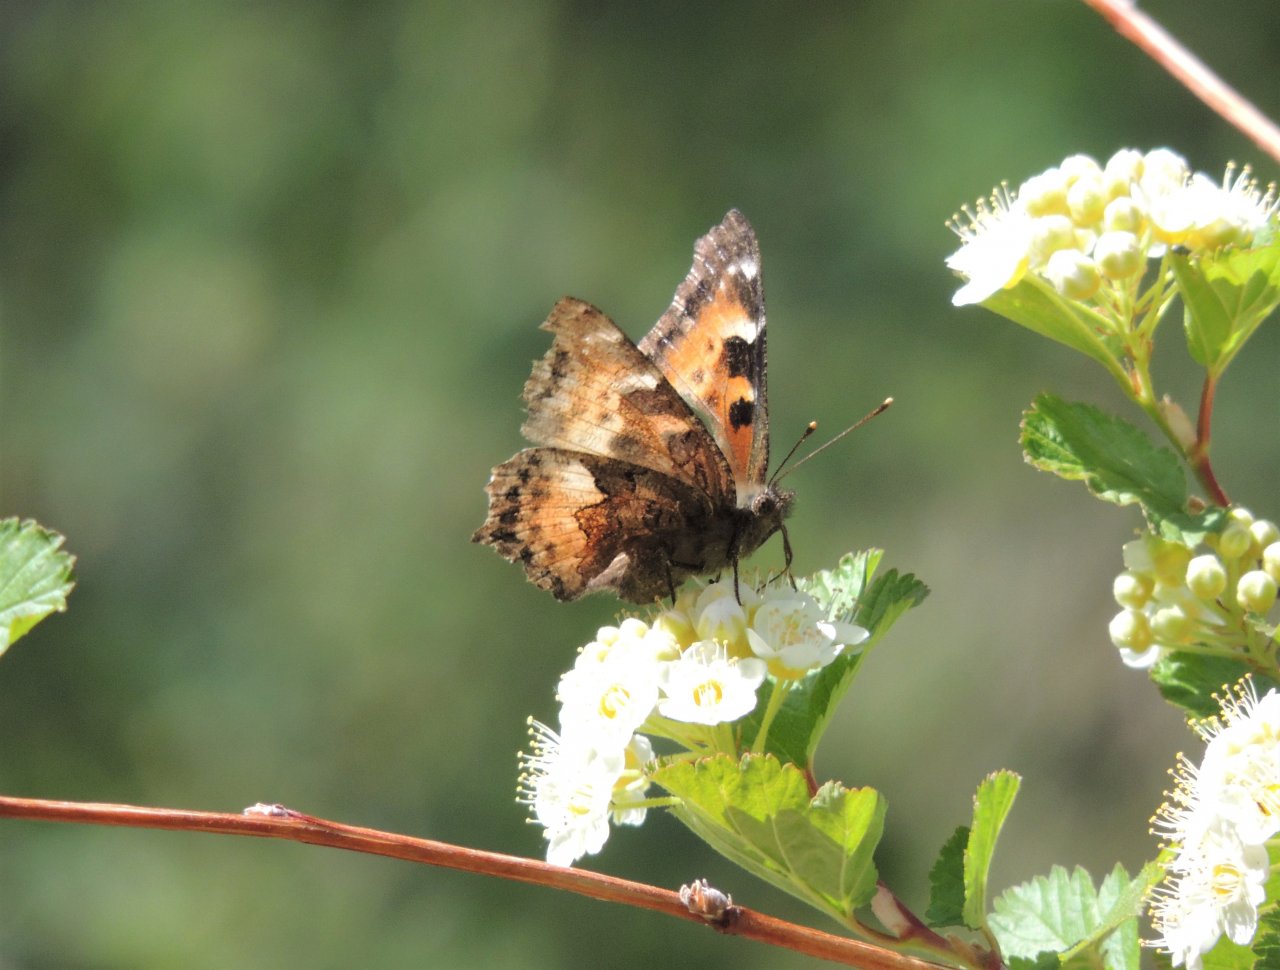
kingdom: Animalia
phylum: Arthropoda
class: Insecta
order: Lepidoptera
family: Nymphalidae
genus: Nymphalis
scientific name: Nymphalis californica
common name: California Tortoiseshell
